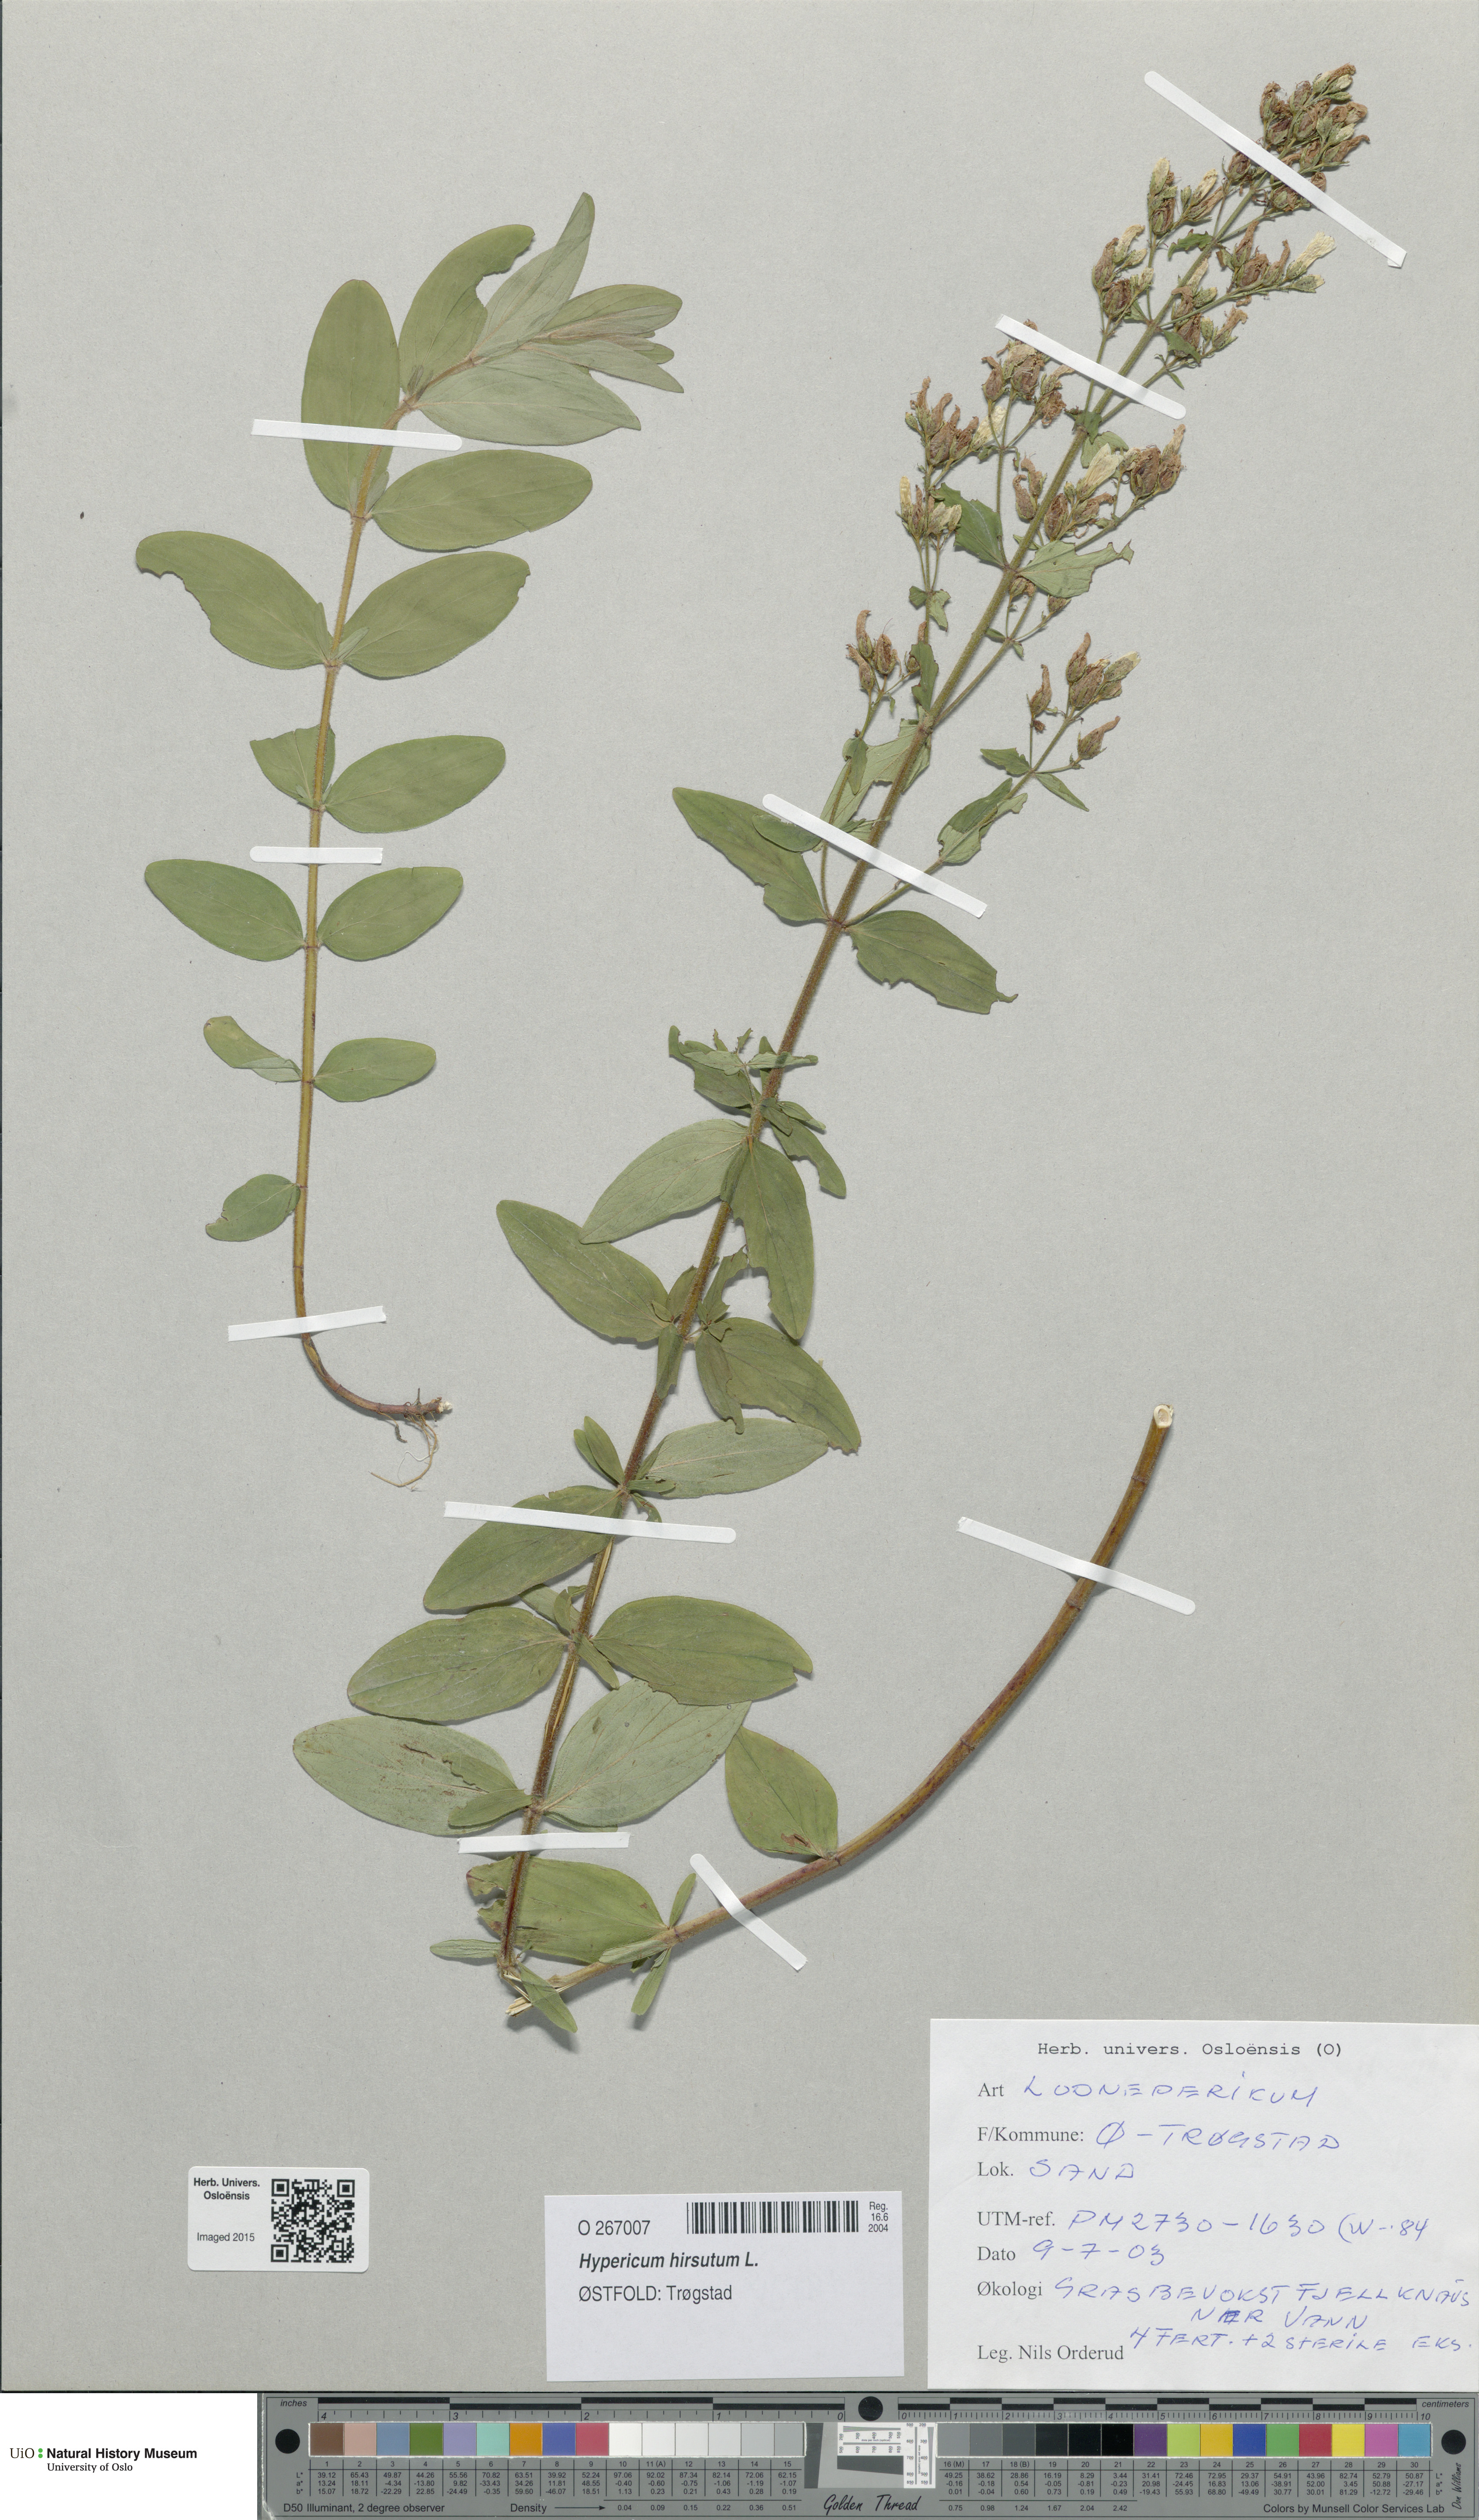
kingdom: Plantae
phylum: Tracheophyta
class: Magnoliopsida
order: Malpighiales
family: Hypericaceae
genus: Hypericum
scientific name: Hypericum hirsutum
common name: Hairy st. john's-wort
